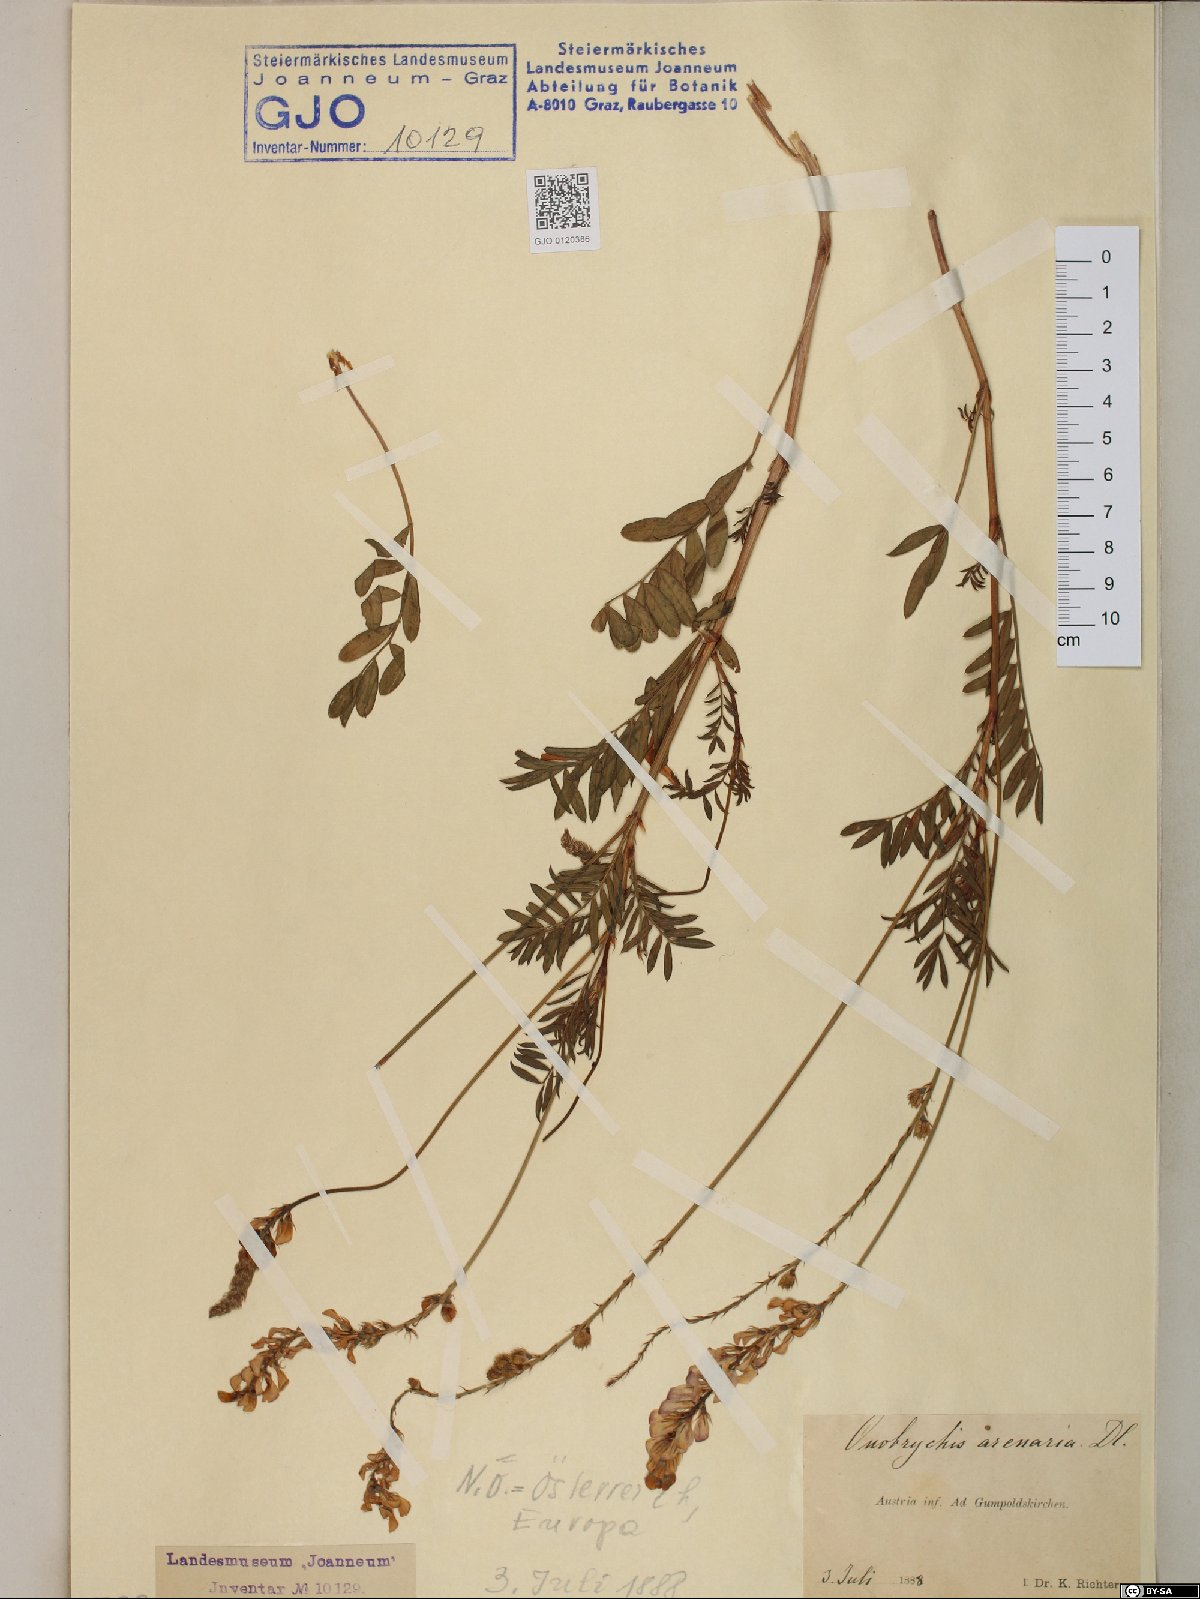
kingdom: Plantae
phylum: Tracheophyta
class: Magnoliopsida
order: Fabales
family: Fabaceae
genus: Onobrychis
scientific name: Onobrychis arenaria
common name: Sand esparcet
